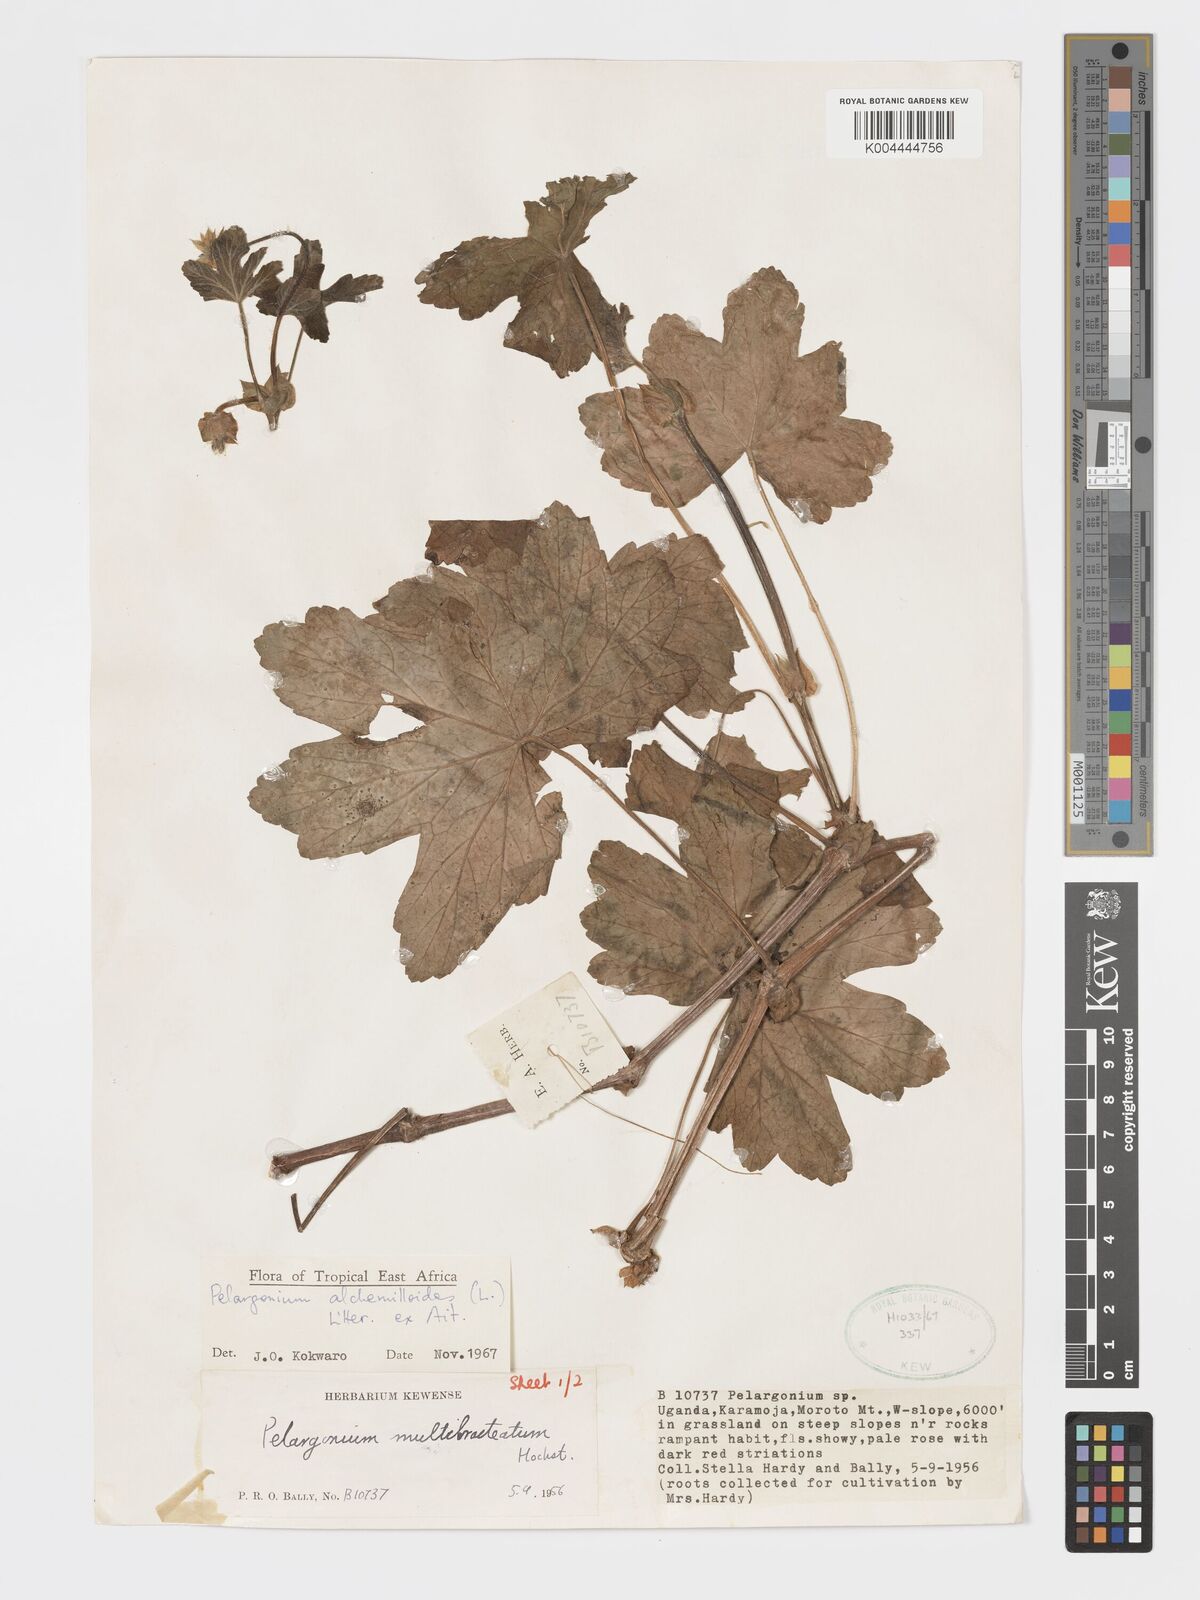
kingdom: Plantae
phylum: Tracheophyta
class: Magnoliopsida
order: Geraniales
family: Geraniaceae
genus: Pelargonium
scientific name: Pelargonium alchemilloides
